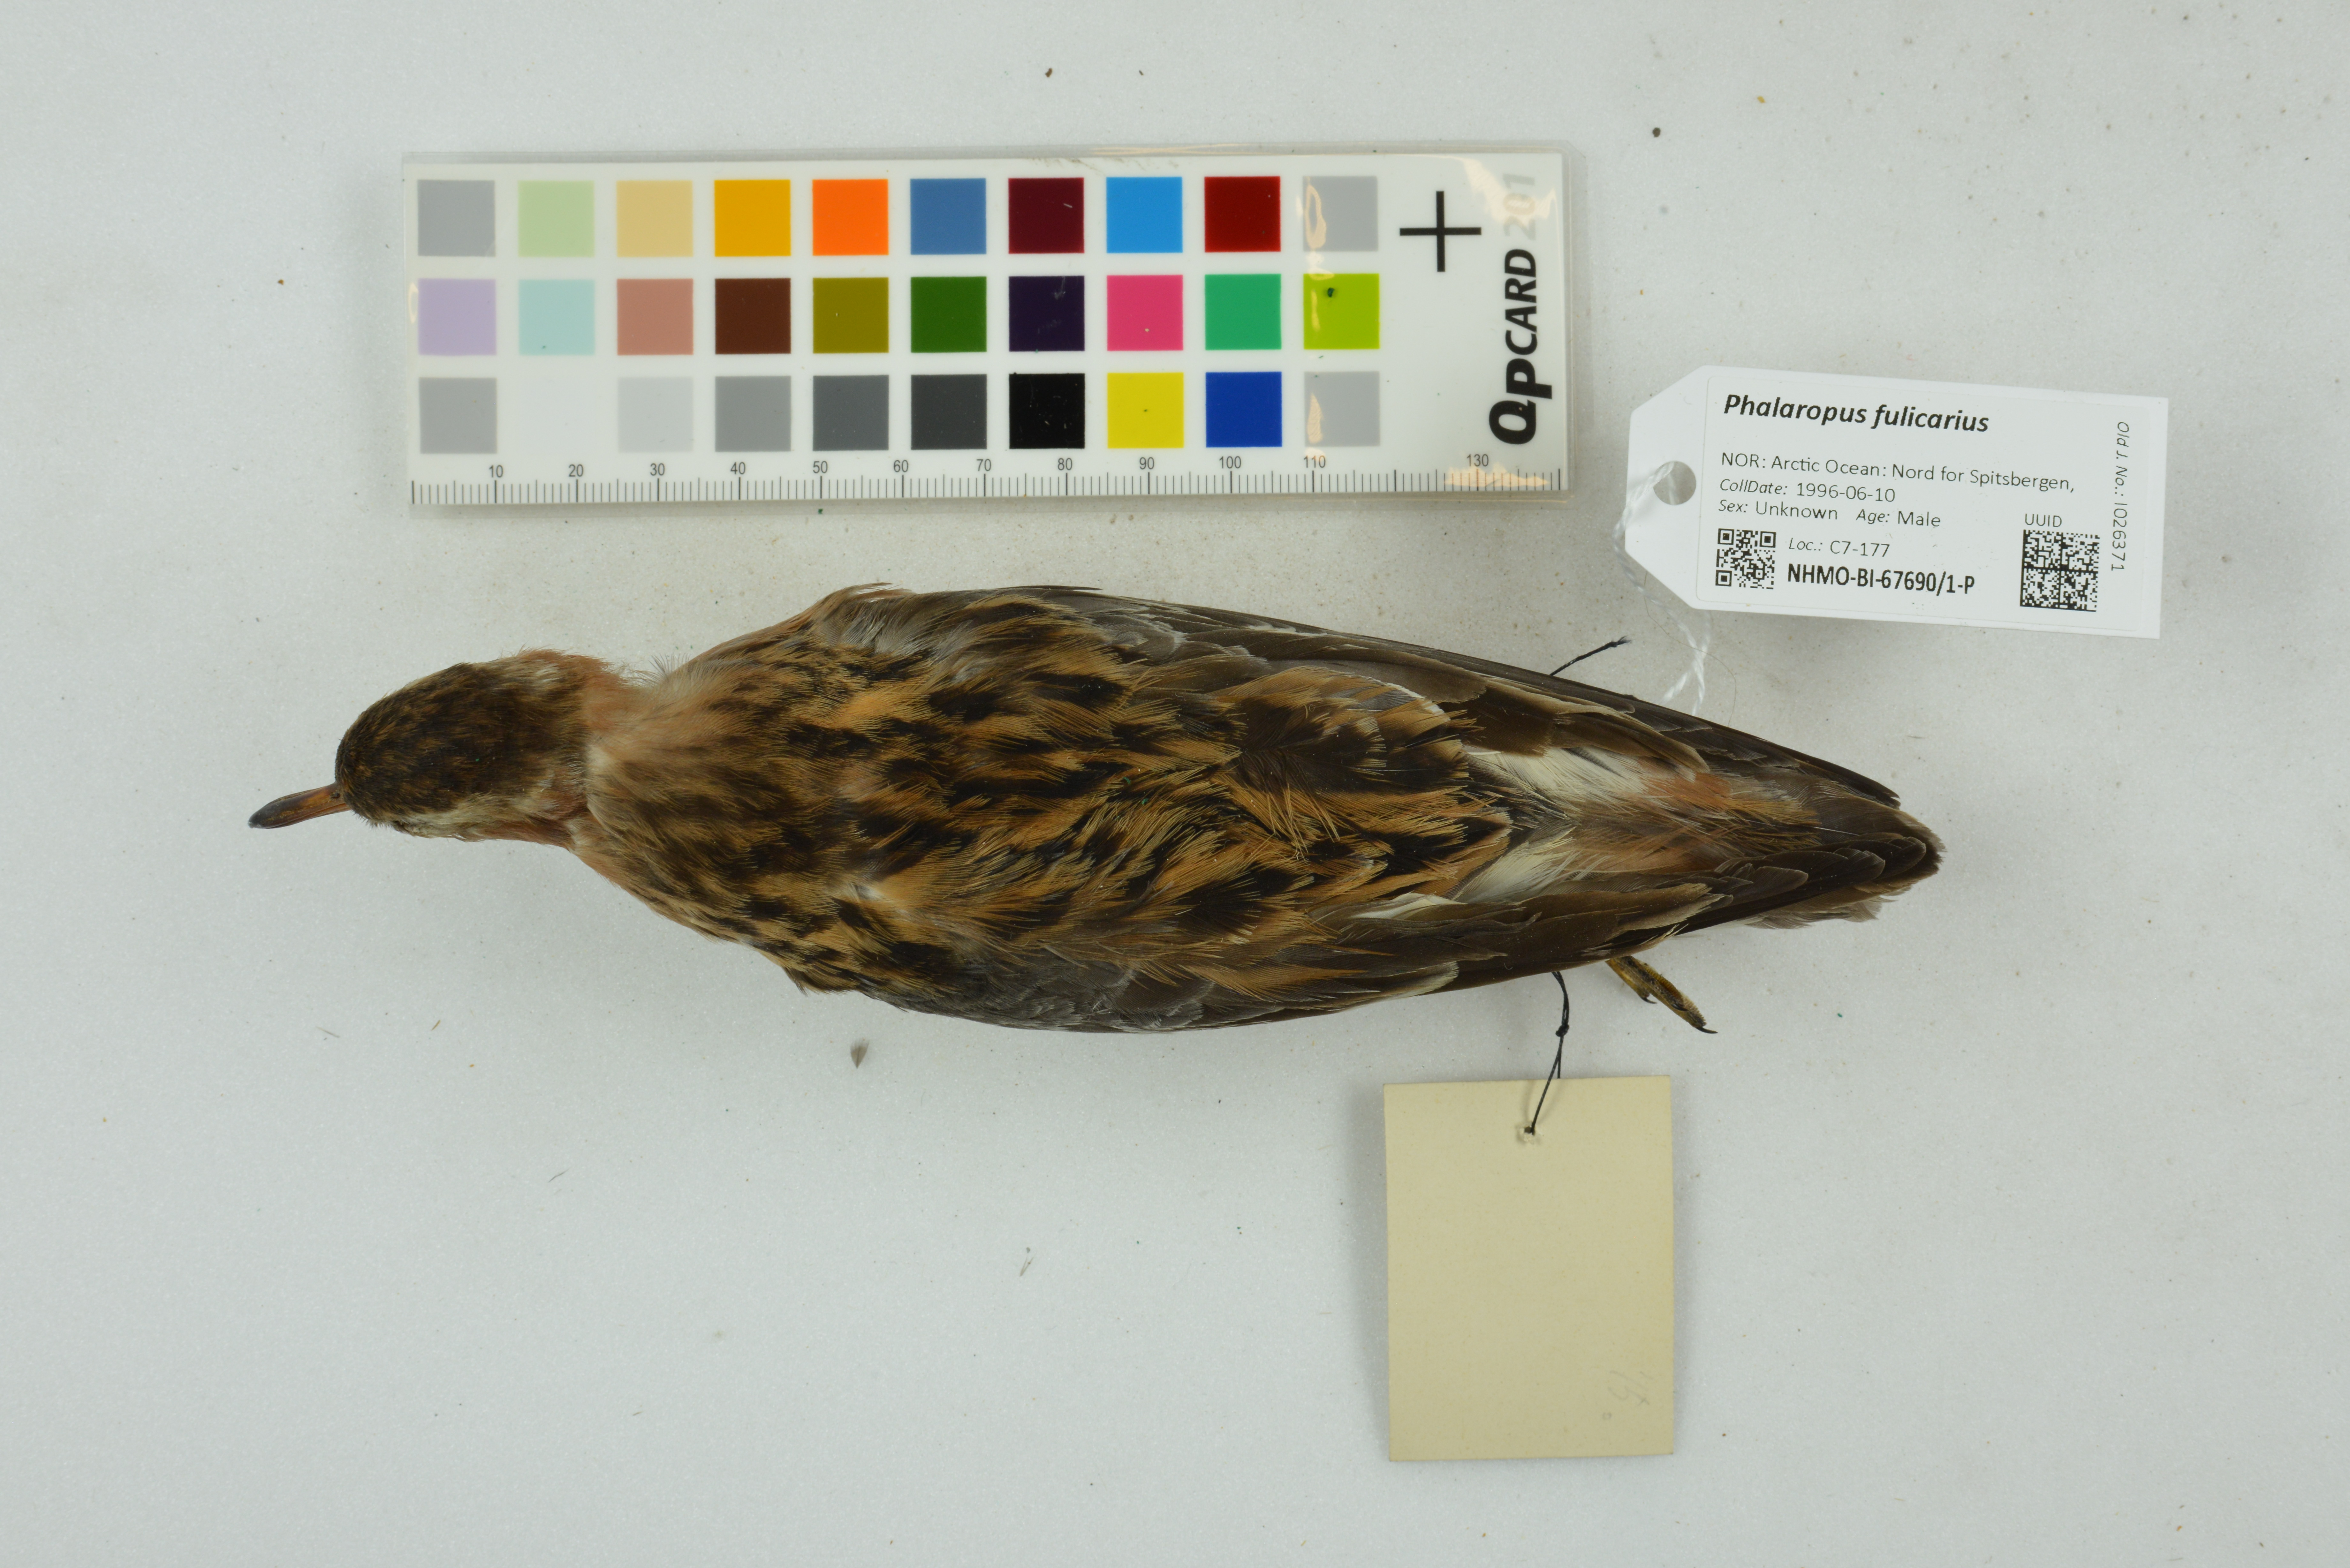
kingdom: Animalia
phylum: Chordata
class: Aves
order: Charadriiformes
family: Scolopacidae
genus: Phalaropus
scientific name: Phalaropus fulicarius
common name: Red phalarope
